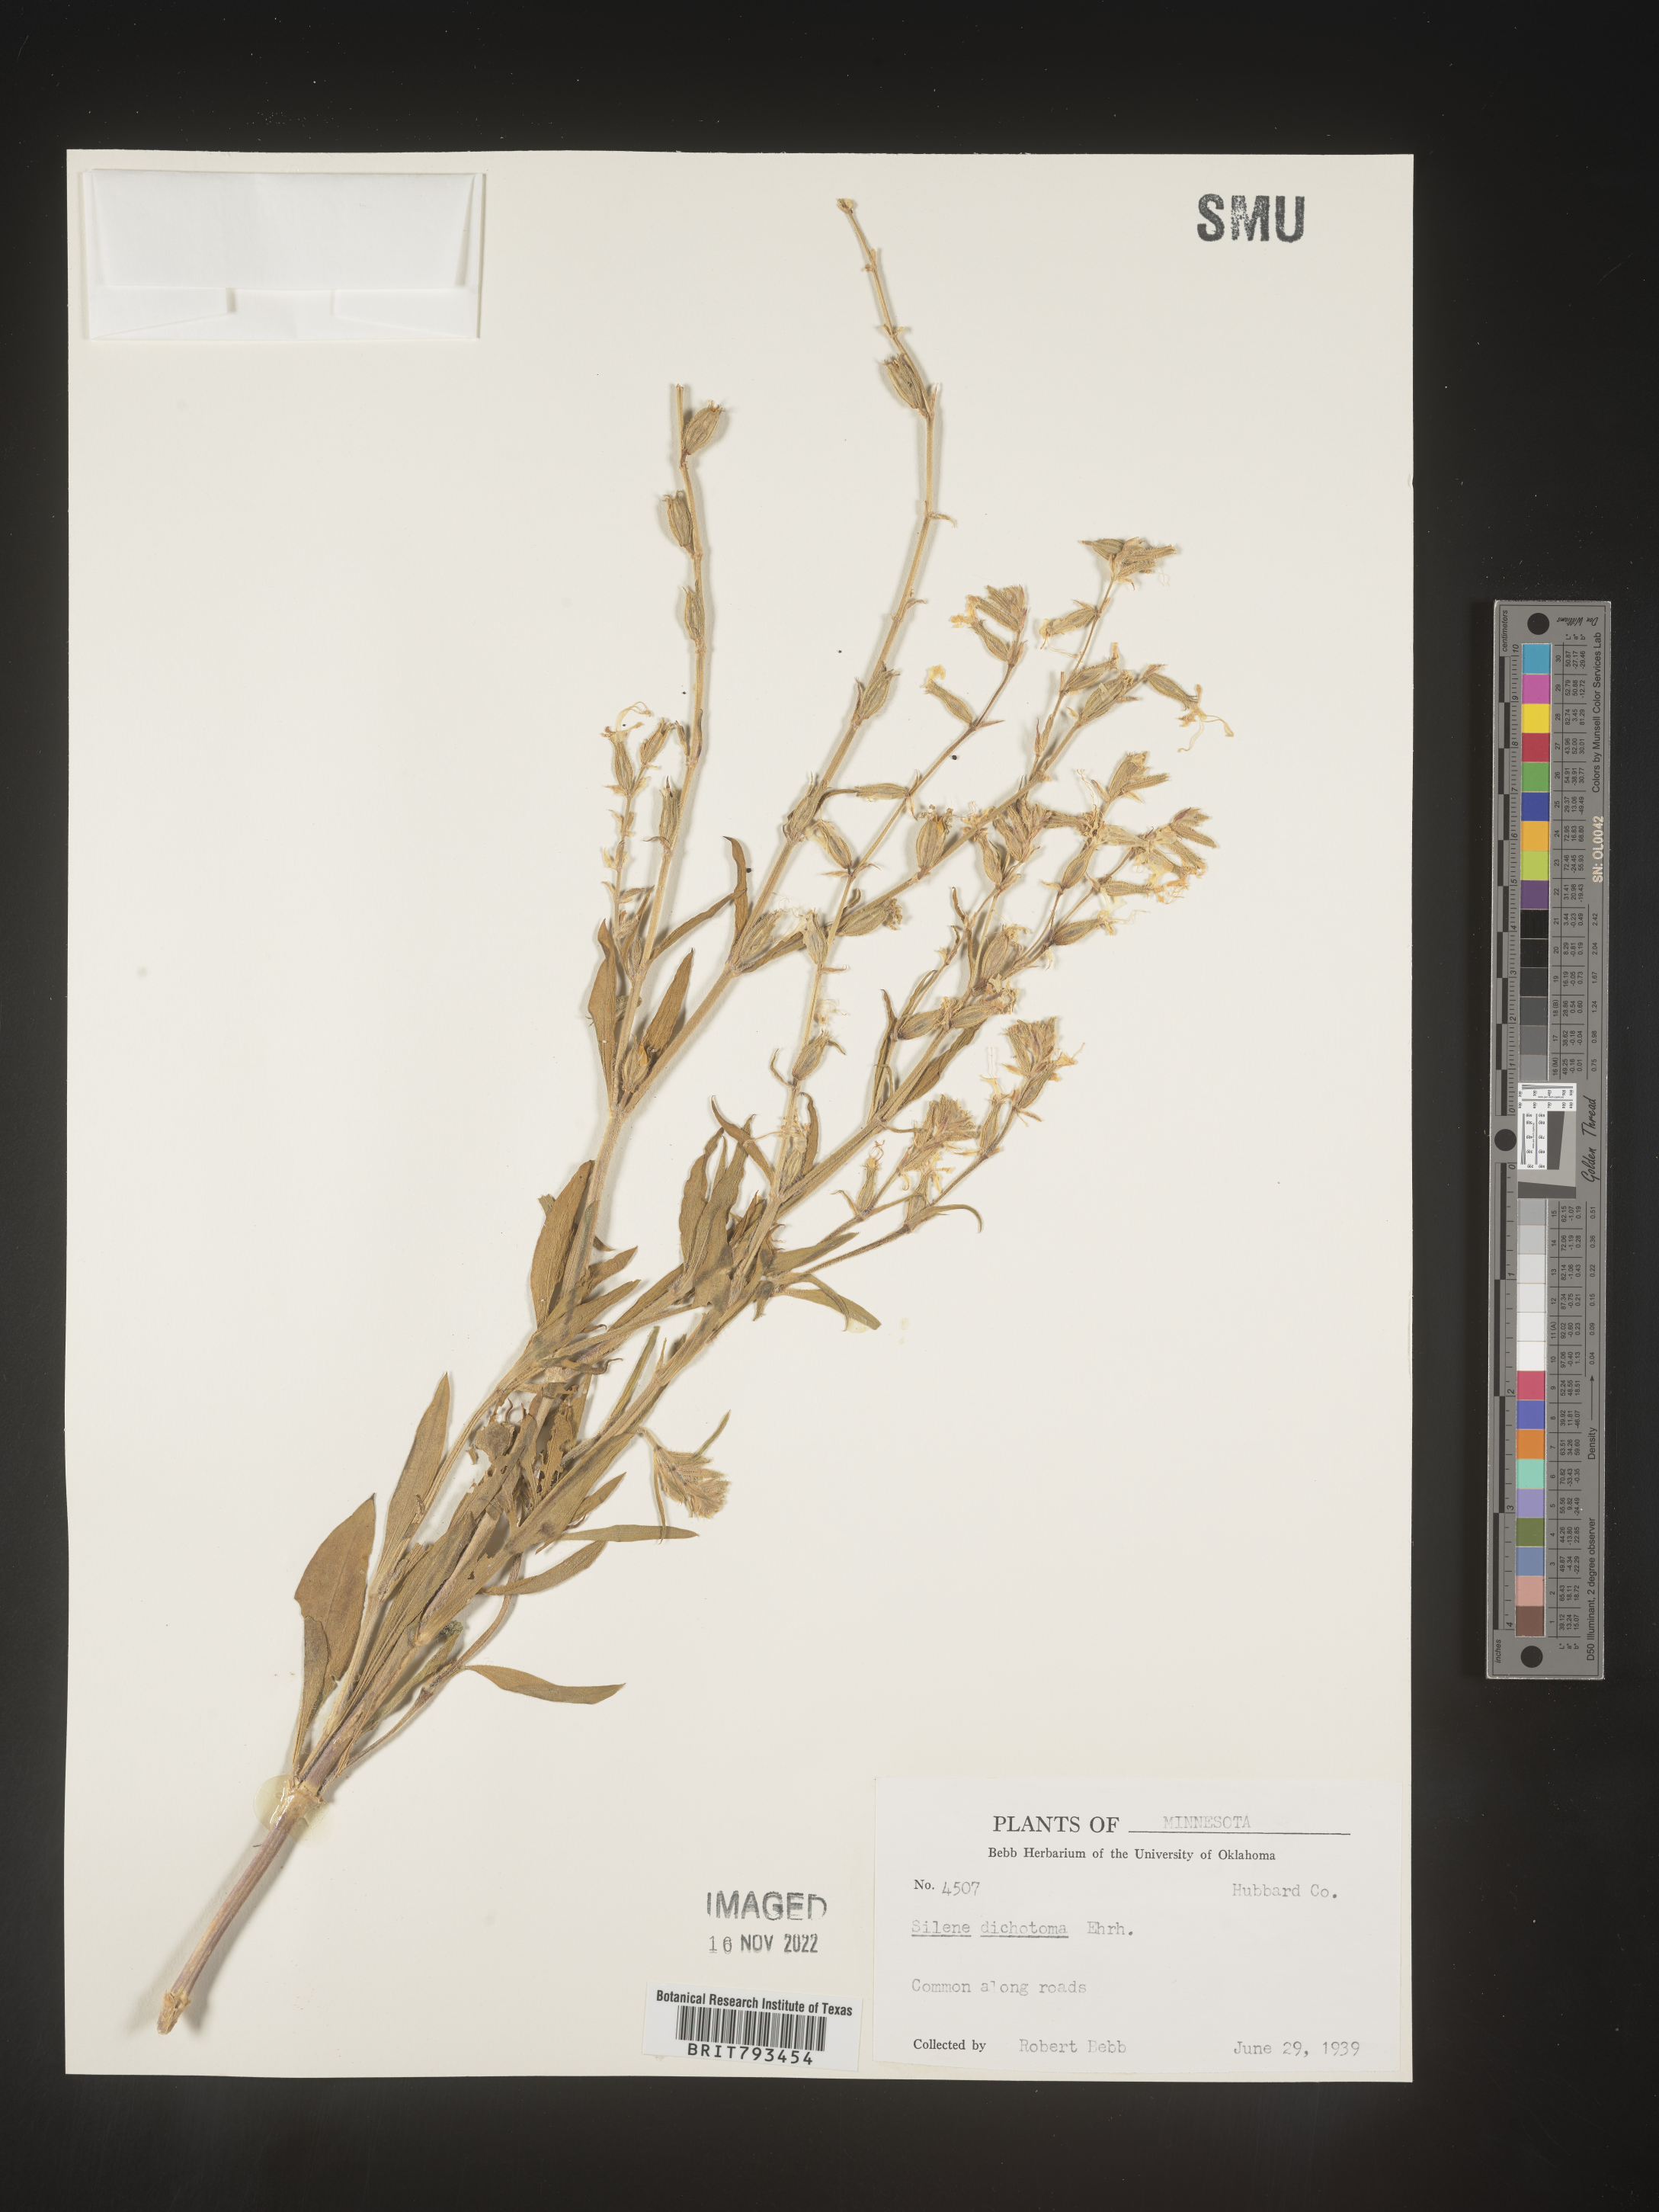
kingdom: Plantae
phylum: Tracheophyta
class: Magnoliopsida
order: Caryophyllales
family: Caryophyllaceae
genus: Silene
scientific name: Silene dichotoma
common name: Forked catchfly
